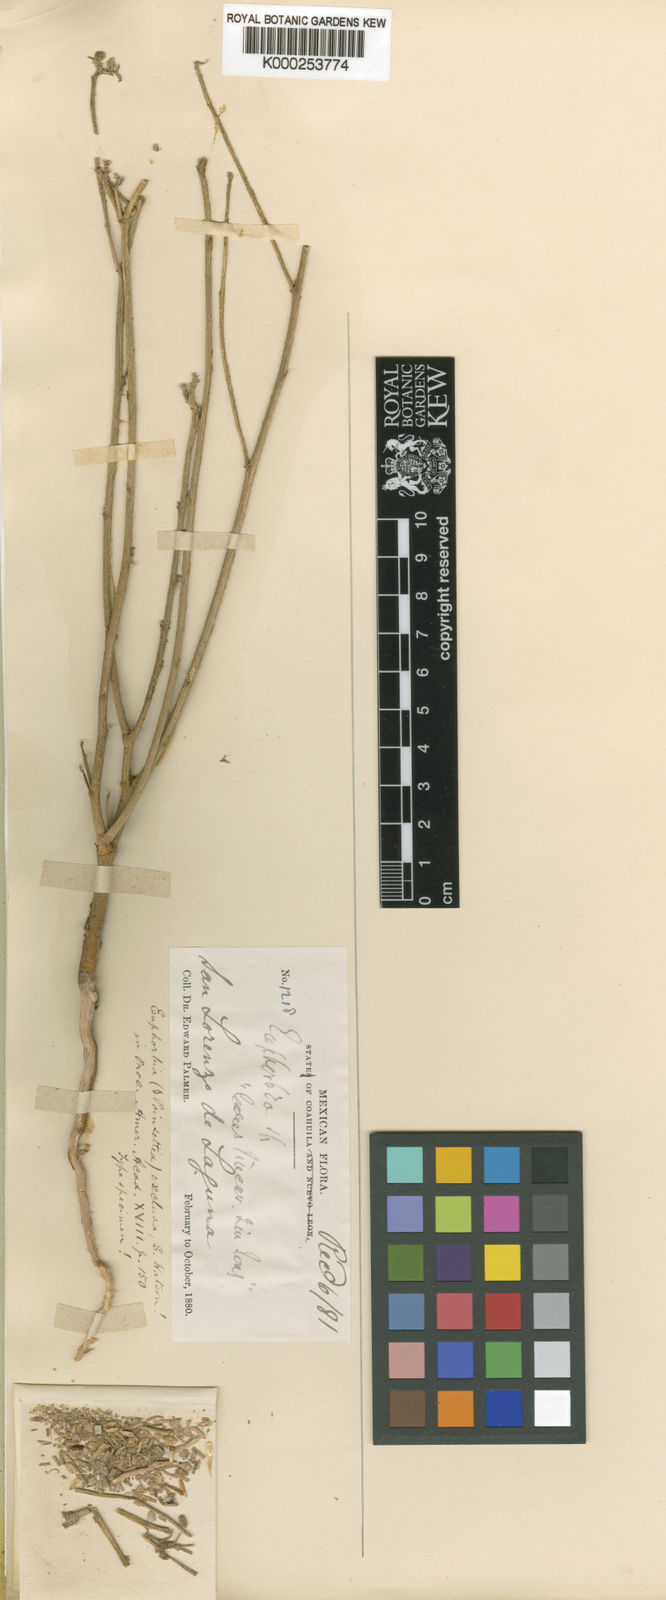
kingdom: Plantae
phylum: Tracheophyta
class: Magnoliopsida
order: Malpighiales
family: Euphorbiaceae
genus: Euphorbia
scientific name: Euphorbia eriantha
